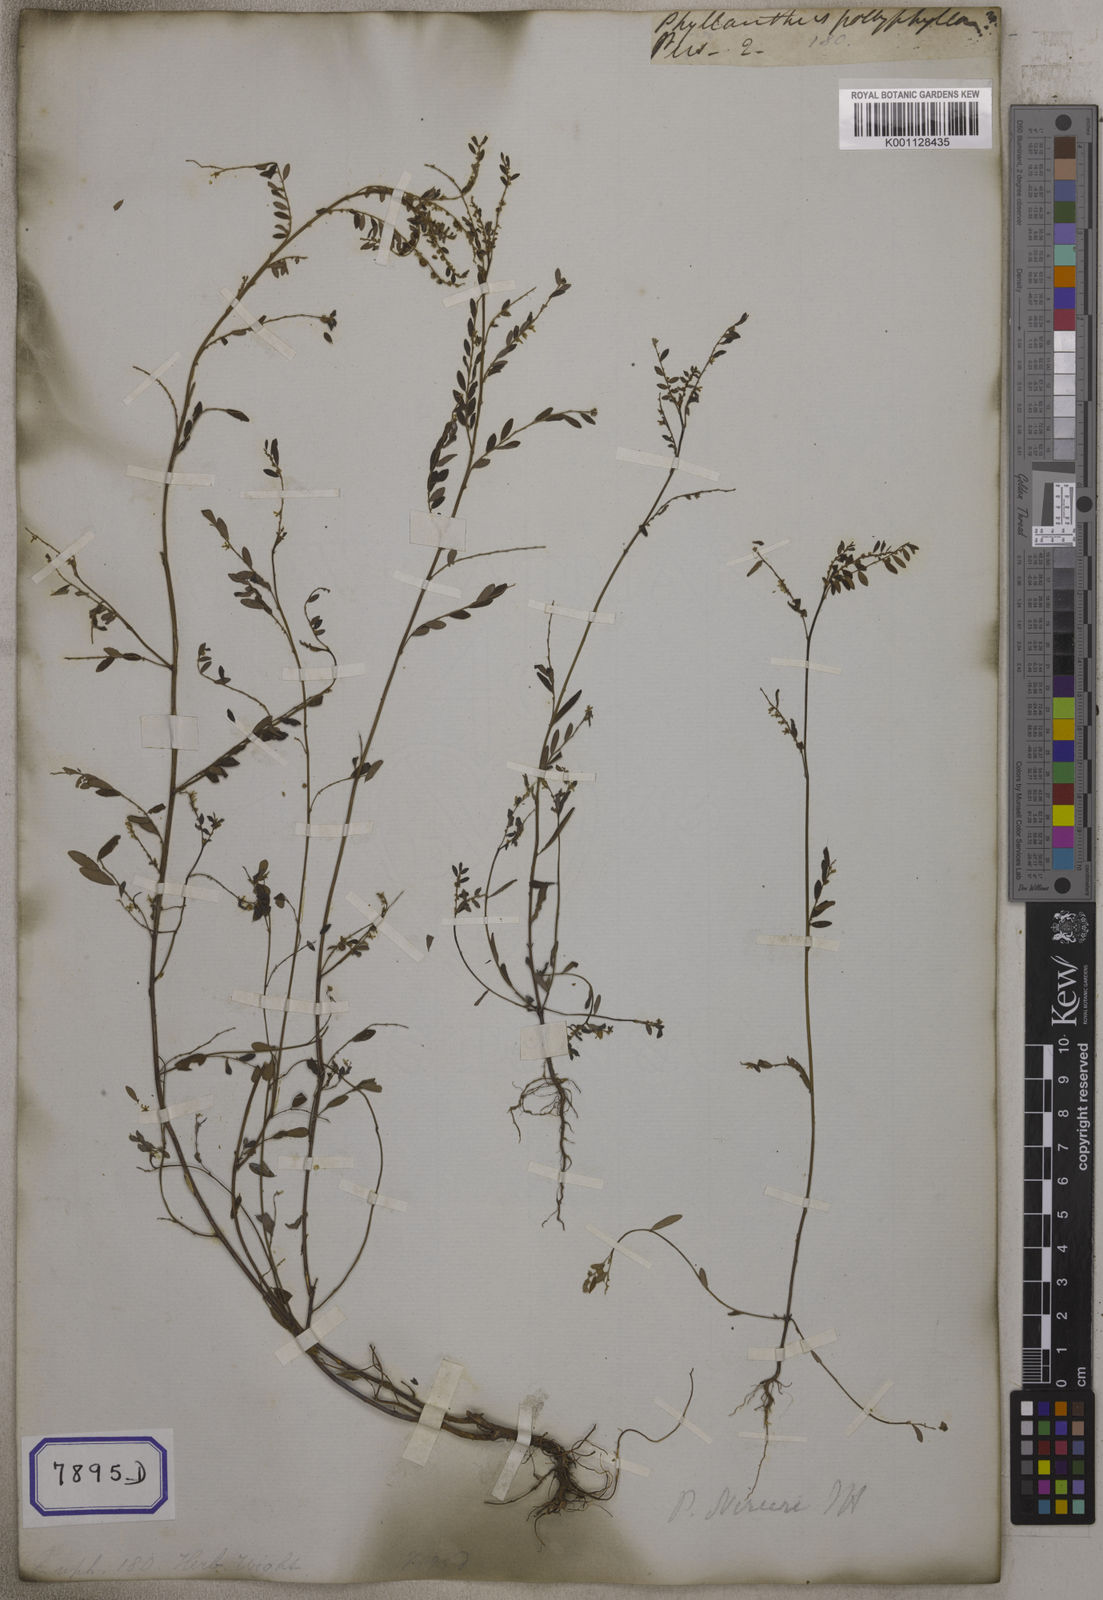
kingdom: Plantae
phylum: Tracheophyta
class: Magnoliopsida
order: Malpighiales
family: Euphorbiaceae
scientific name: Euphorbiaceae
